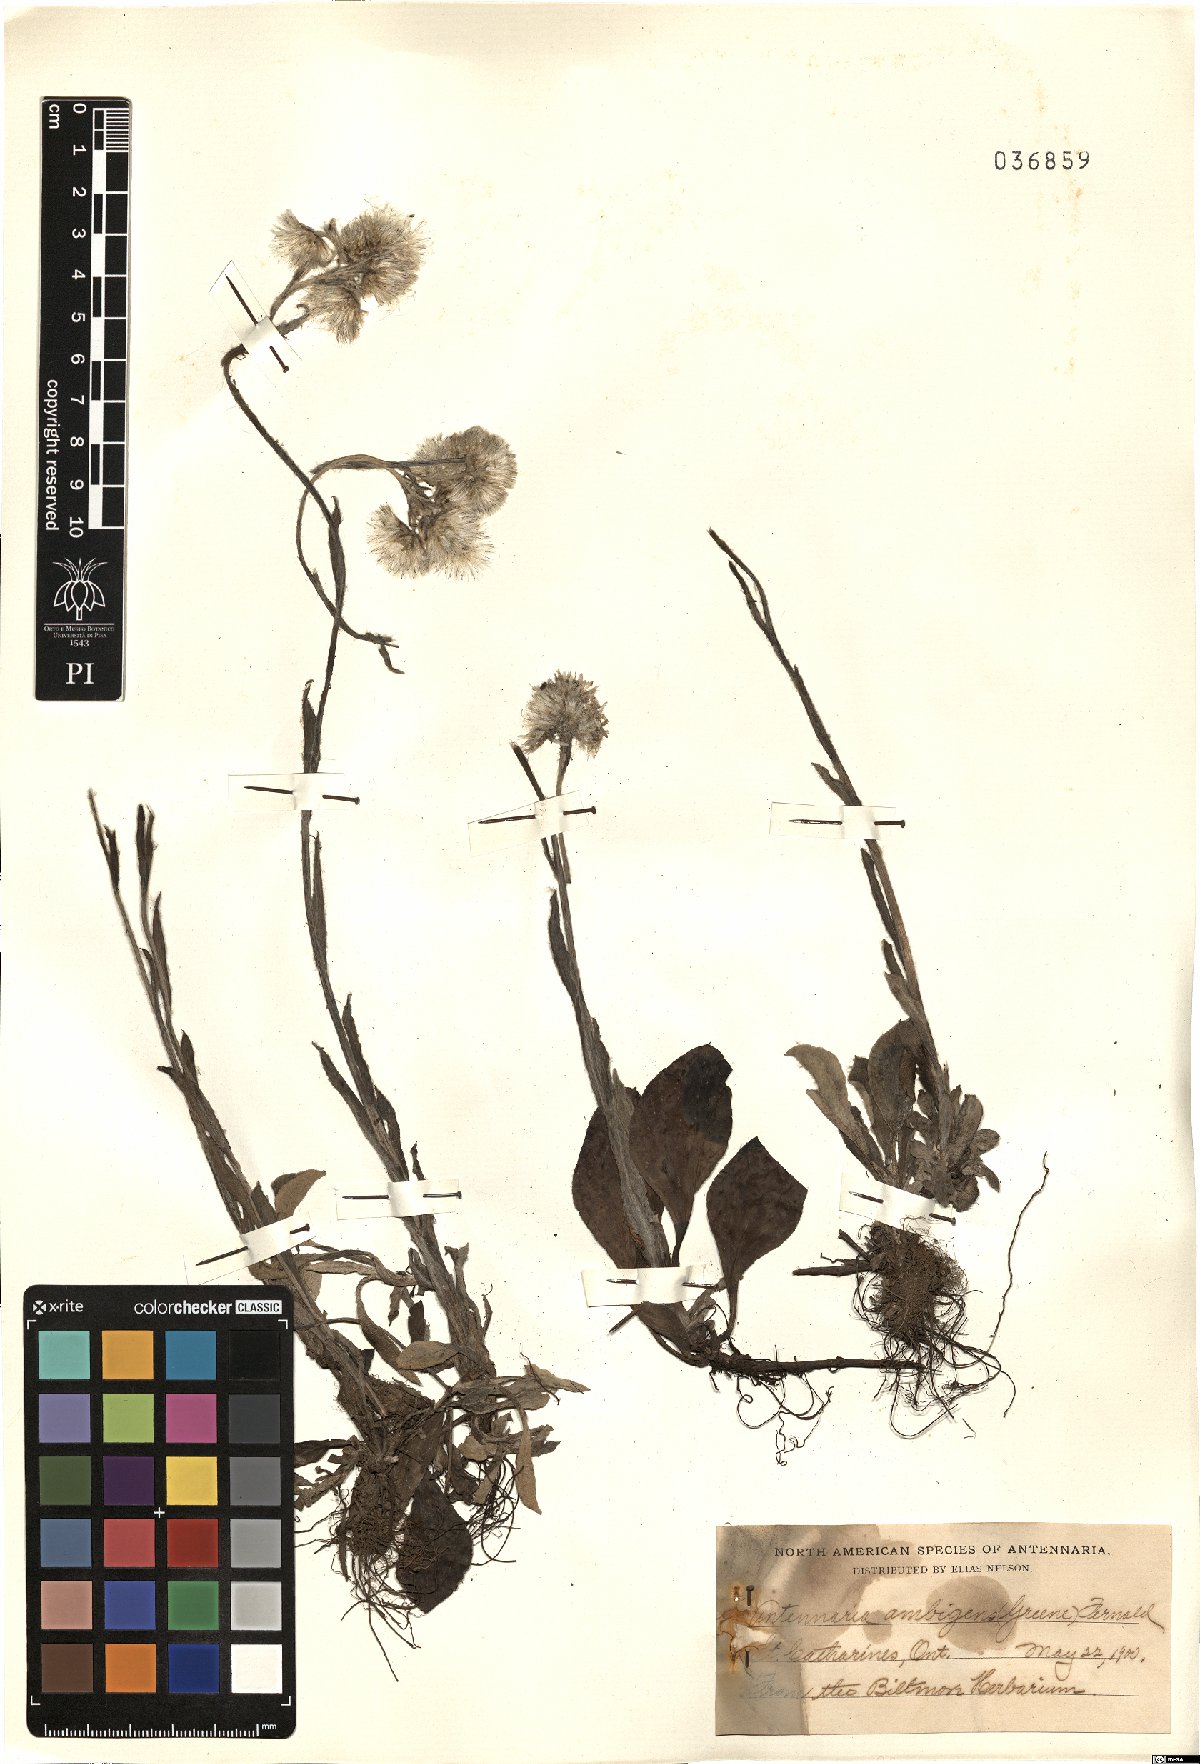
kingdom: Plantae
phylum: Tracheophyta
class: Magnoliopsida
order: Asterales
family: Asteraceae
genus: Antennaria
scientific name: Antennaria parlinii
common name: Parlin's pussytoes
